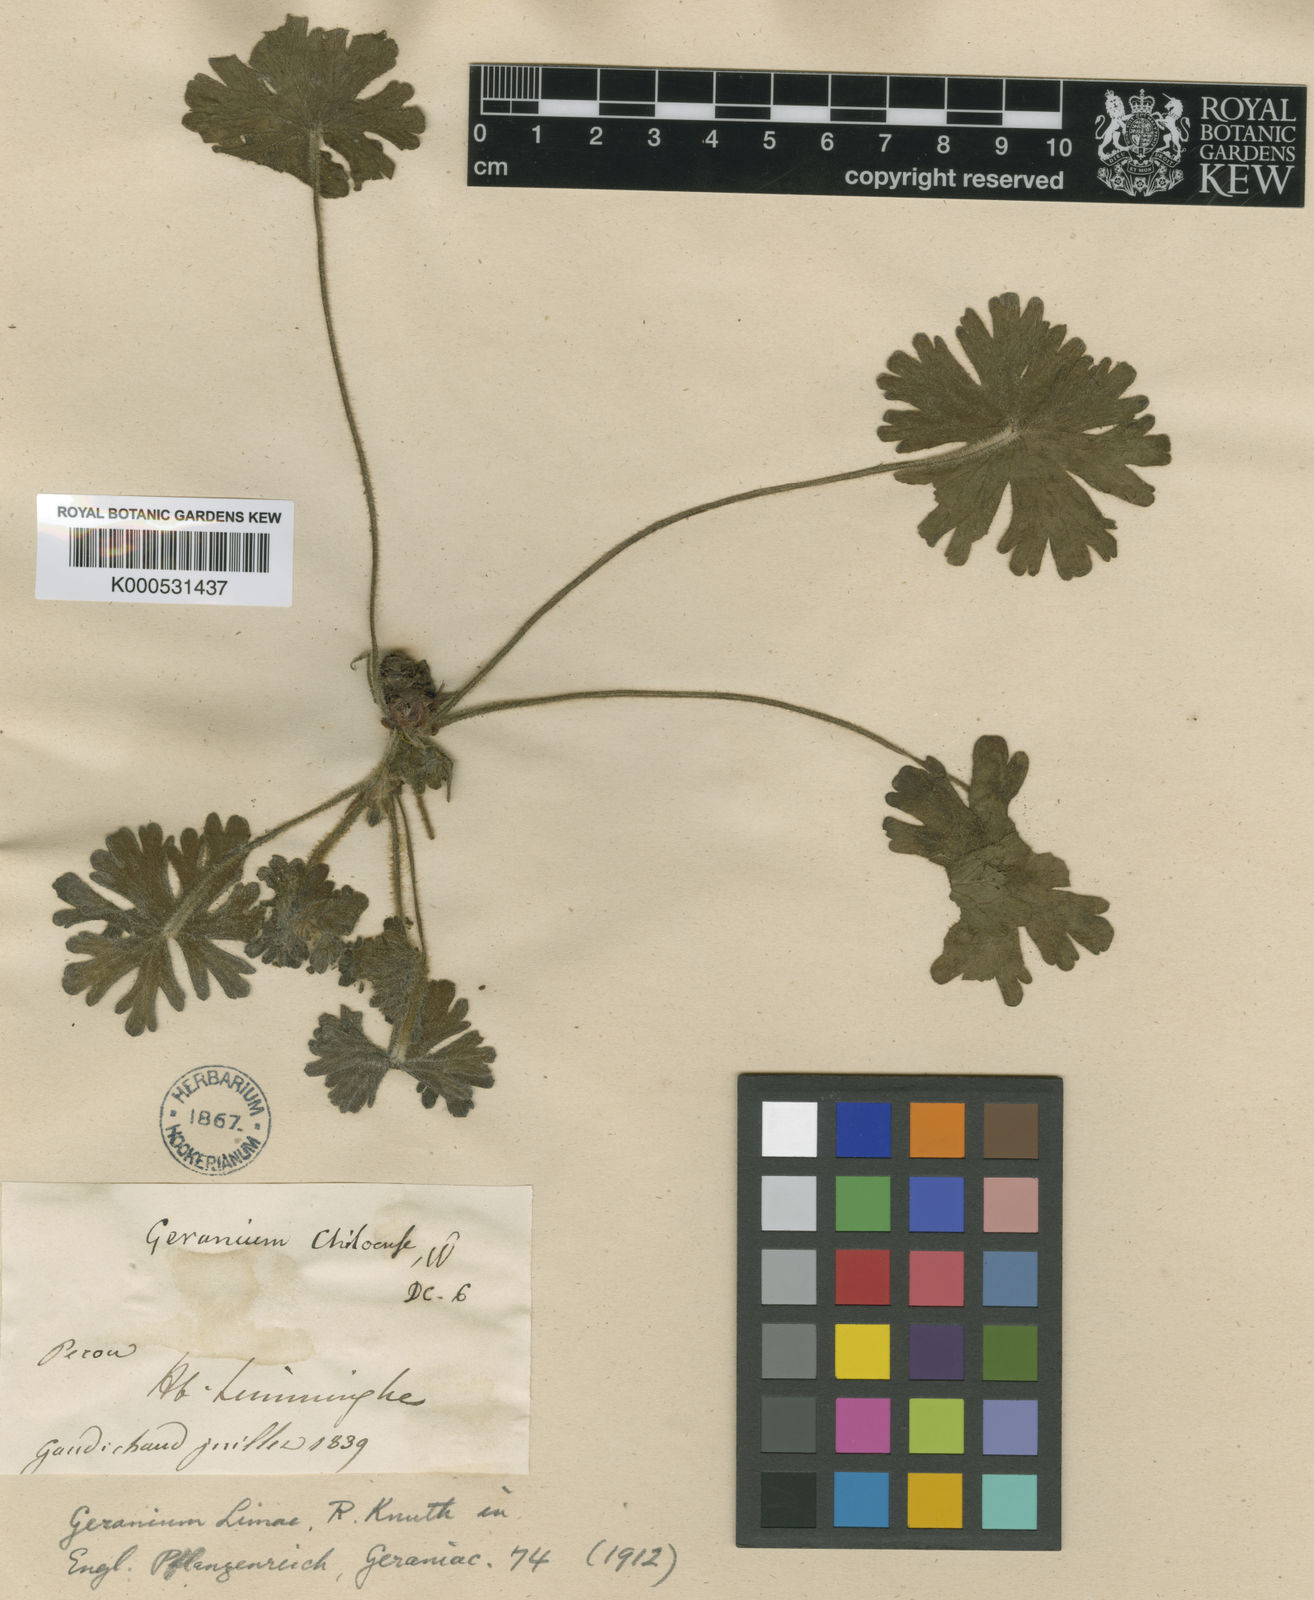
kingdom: Plantae
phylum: Tracheophyta
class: Magnoliopsida
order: Geraniales
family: Geraniaceae
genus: Geranium
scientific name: Geranium limae
